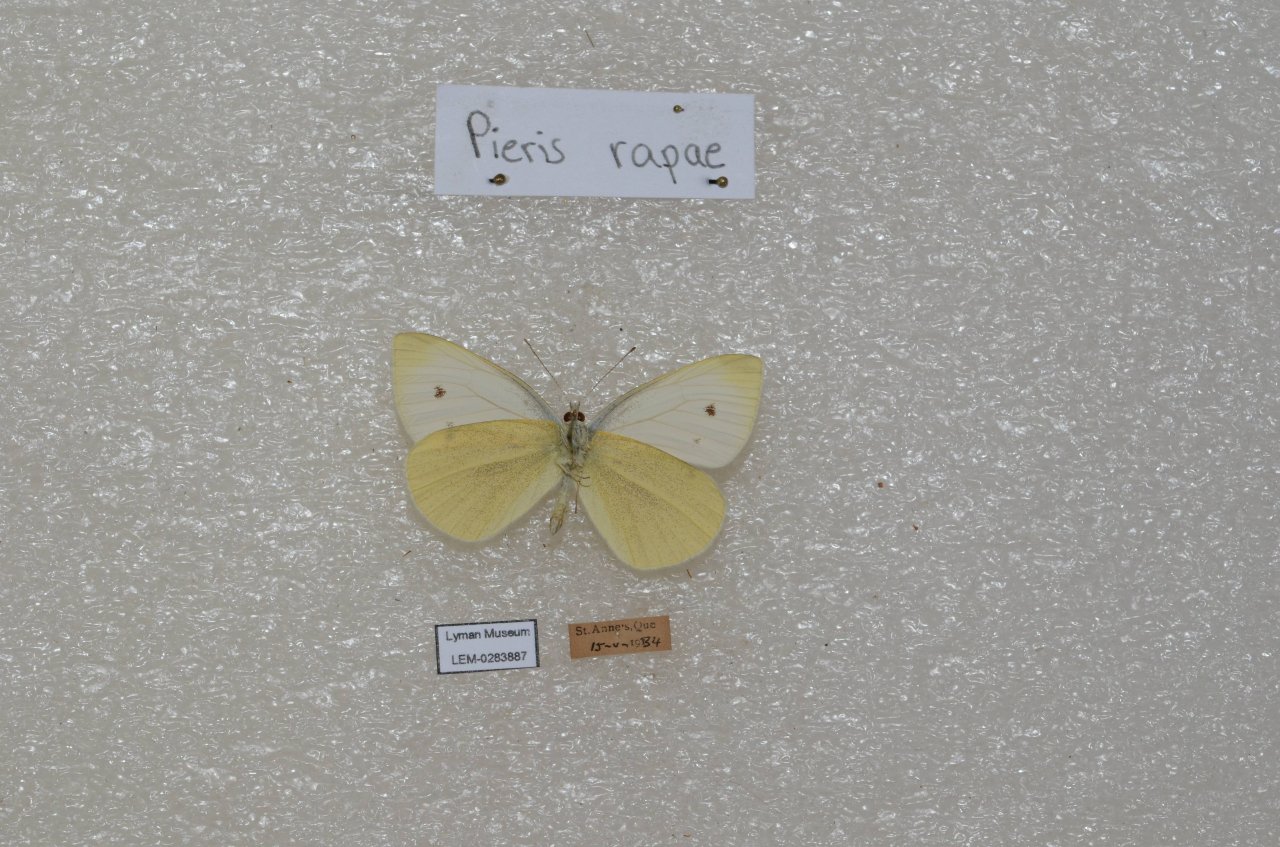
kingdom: Animalia
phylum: Arthropoda
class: Insecta
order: Lepidoptera
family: Pieridae
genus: Pieris
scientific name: Pieris rapae
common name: Cabbage White
